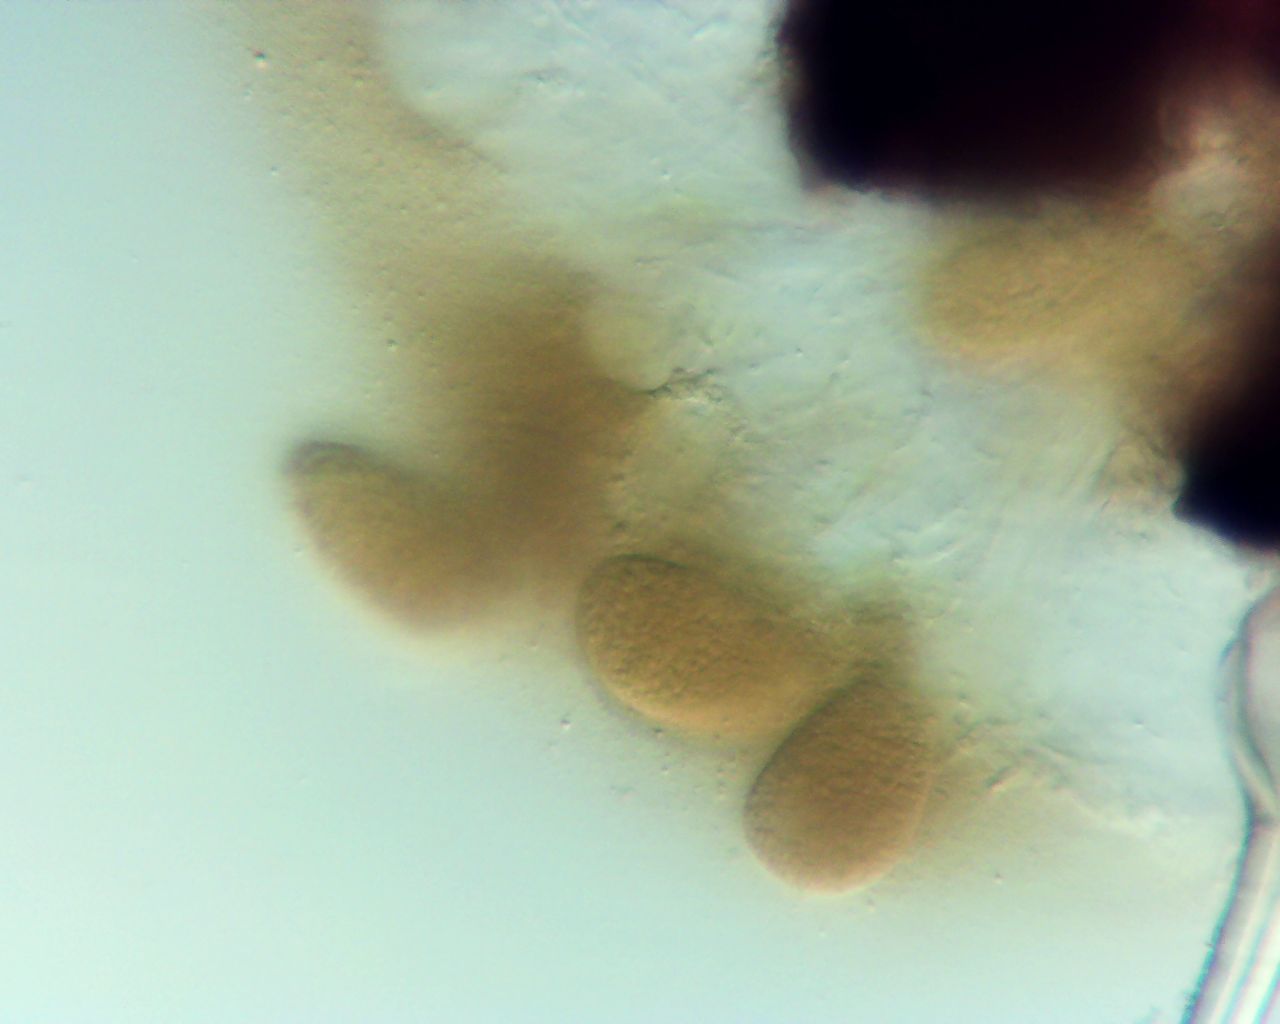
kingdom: Fungi
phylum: Ascomycota
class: Leotiomycetes
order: Helotiales
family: Erysiphaceae
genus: Phyllactinia
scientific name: Phyllactinia guttata
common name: hassel-meldug
